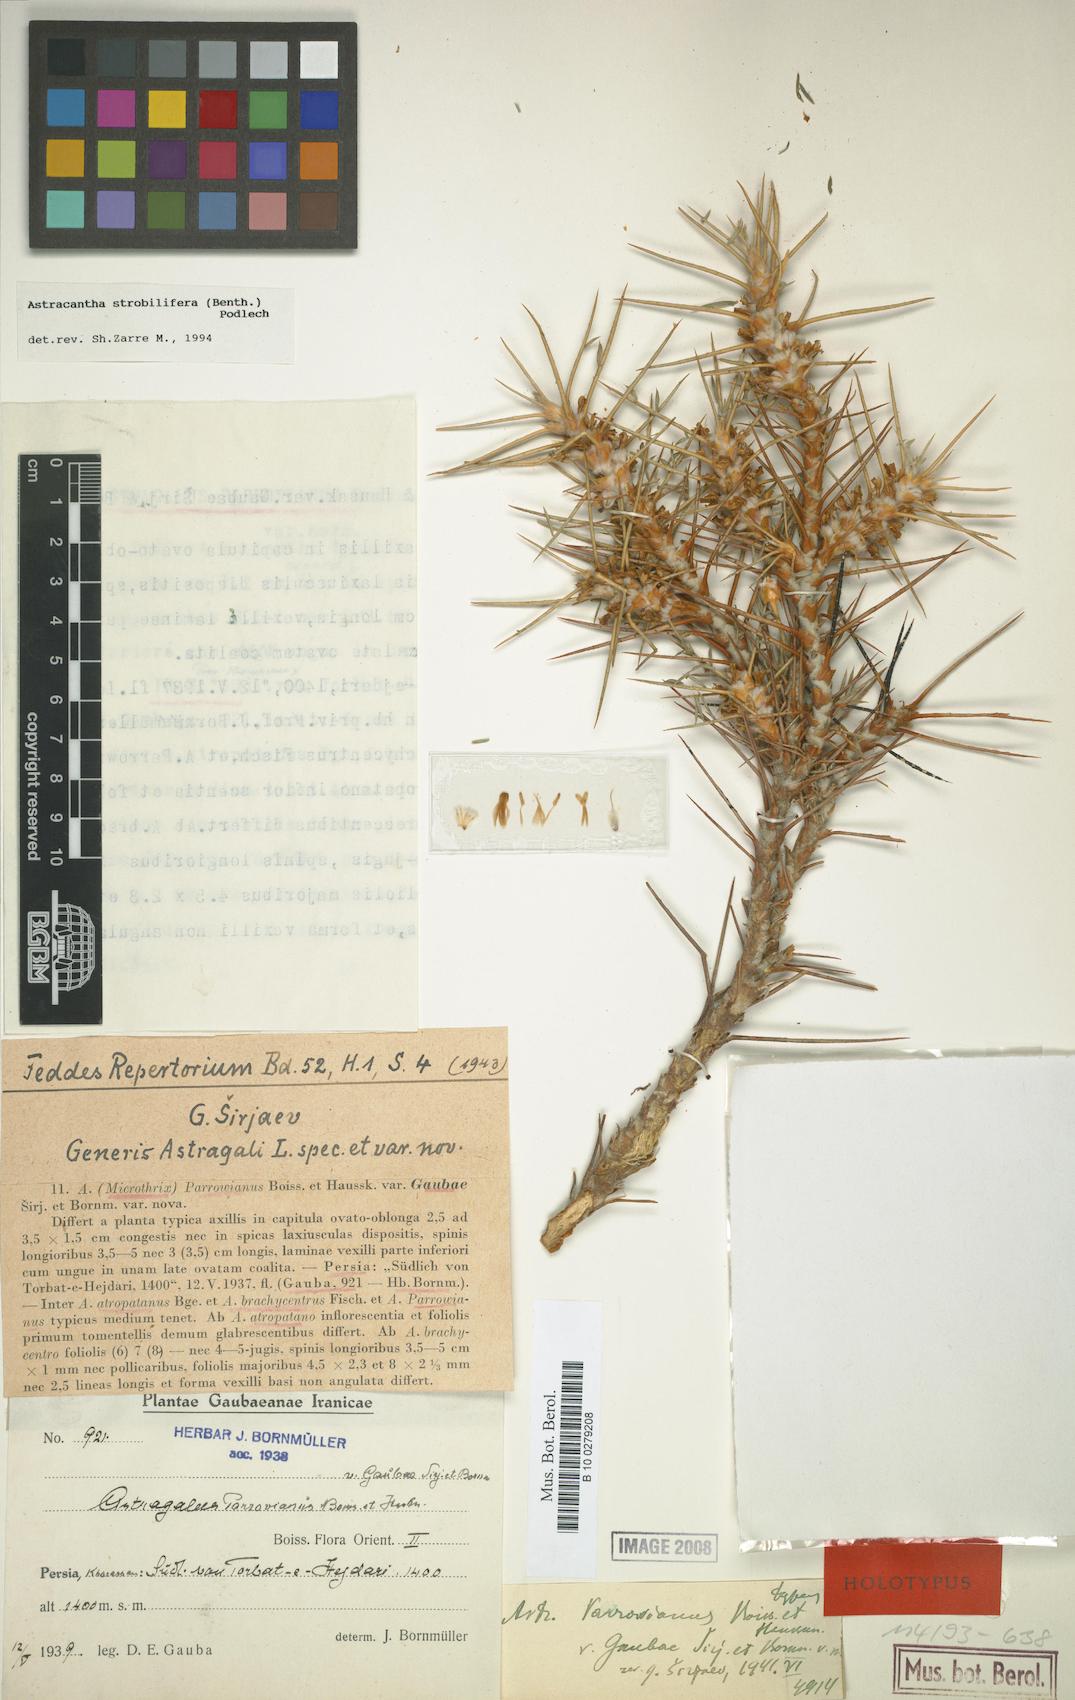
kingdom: Plantae
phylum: Tracheophyta
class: Magnoliopsida
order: Fabales
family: Fabaceae
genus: Astragalus
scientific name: Astragalus verus
